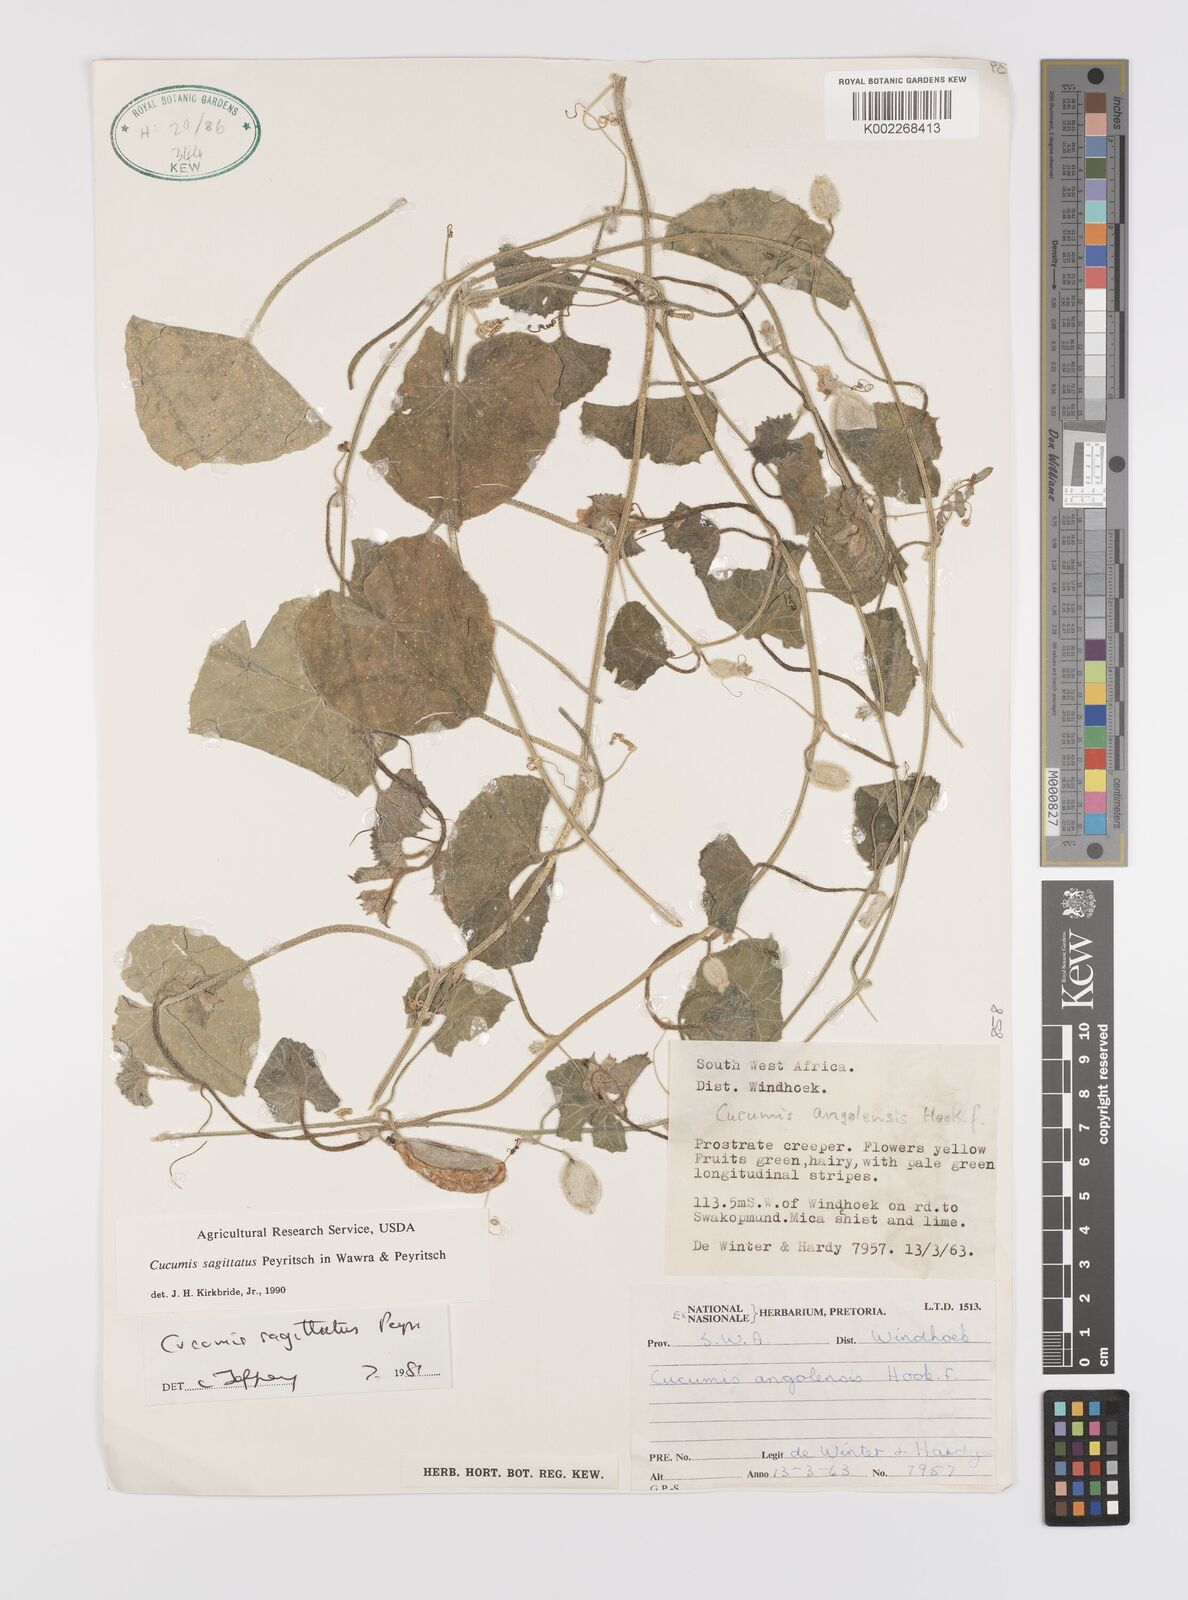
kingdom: Plantae
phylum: Tracheophyta
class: Magnoliopsida
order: Cucurbitales
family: Cucurbitaceae
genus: Cucumis
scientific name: Cucumis sagittatus
